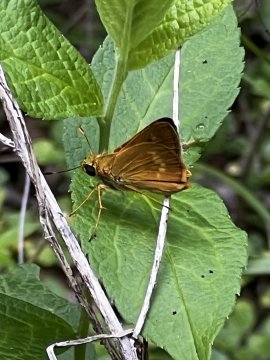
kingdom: Animalia
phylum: Arthropoda
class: Insecta
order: Lepidoptera
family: Hesperiidae
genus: Wallengrenia
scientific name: Wallengrenia otho
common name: Southern Broken-Dash
